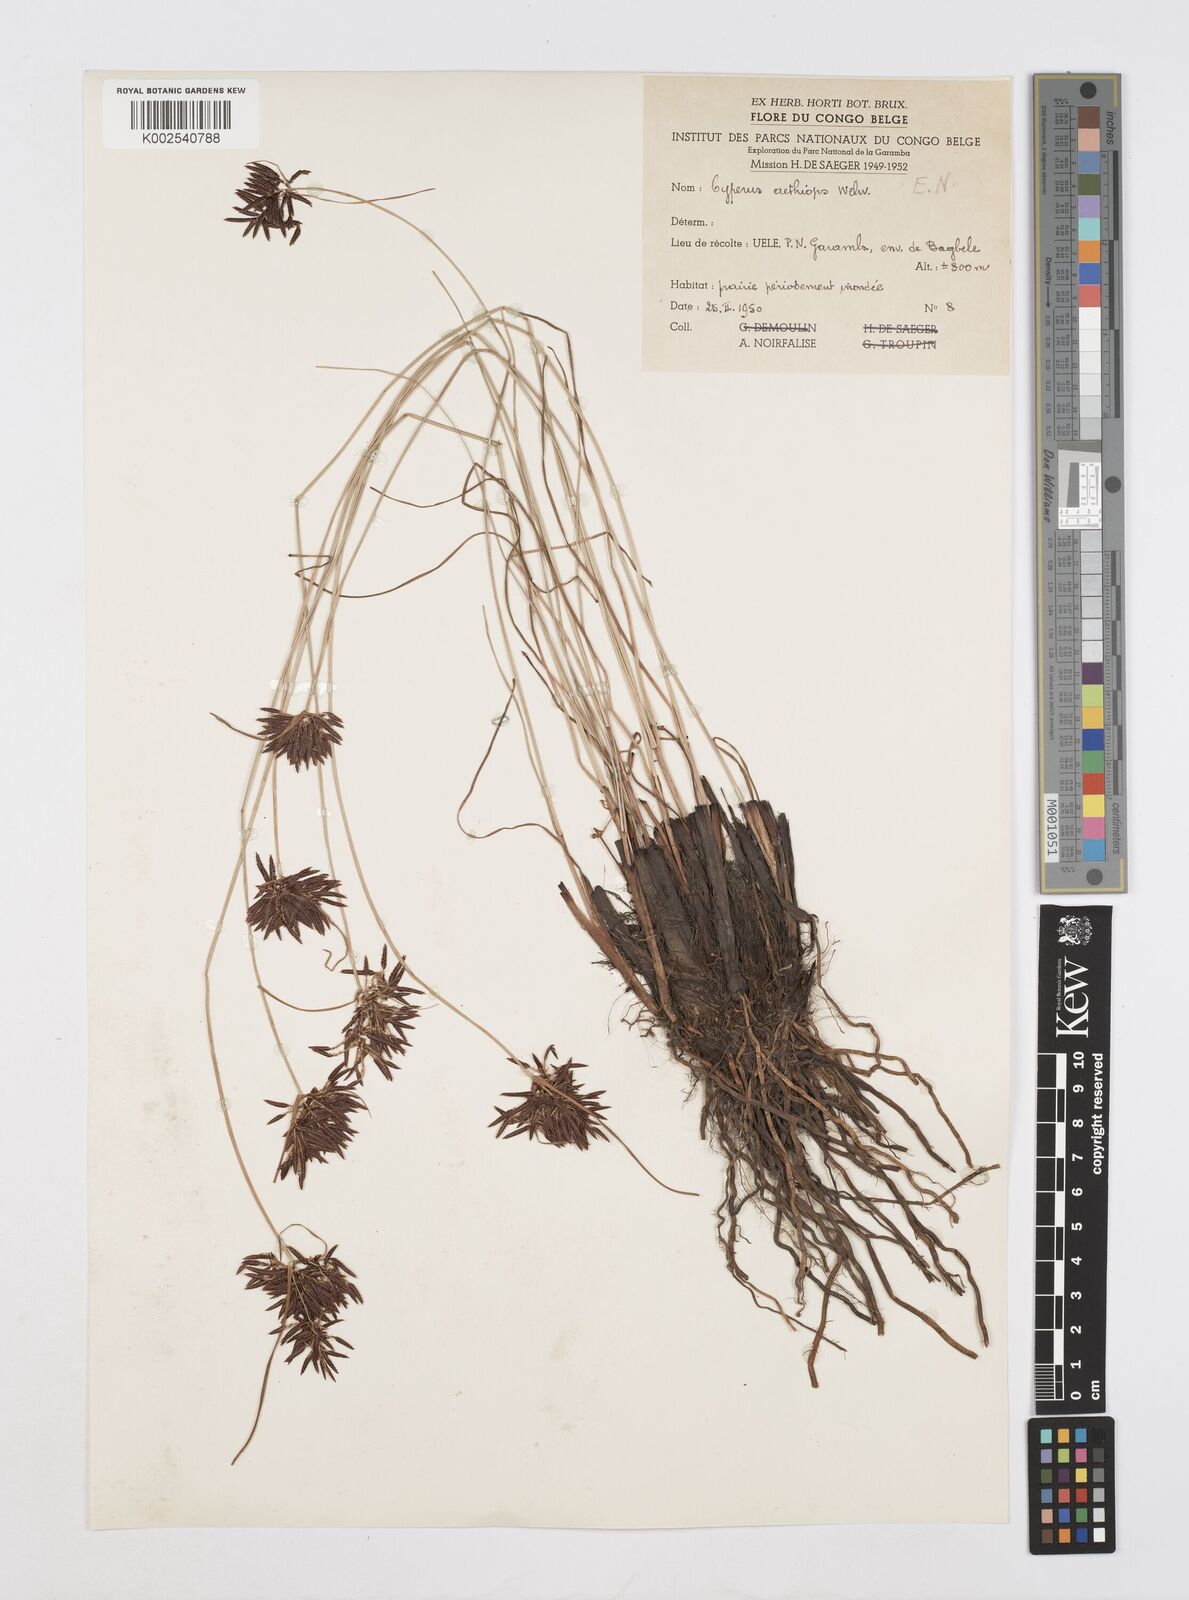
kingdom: Plantae
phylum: Tracheophyta
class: Liliopsida
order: Poales
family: Cyperaceae
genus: Cyperus
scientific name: Cyperus aethiops
